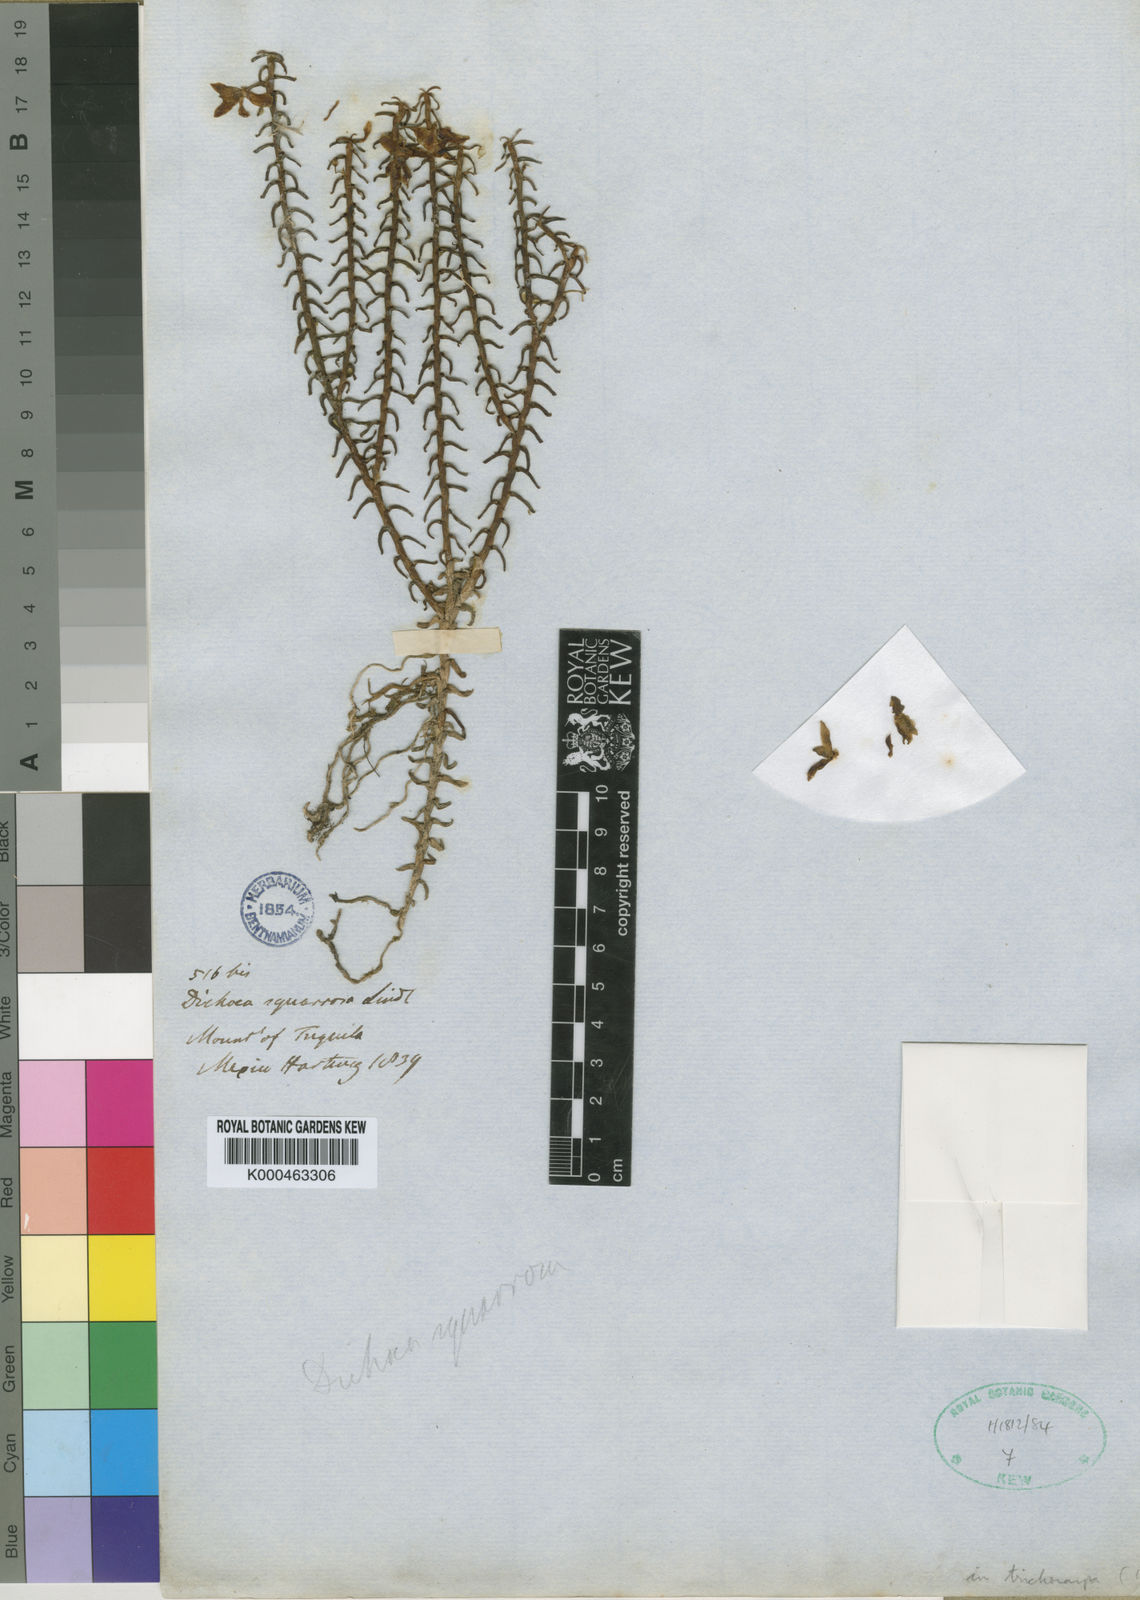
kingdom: Plantae
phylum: Tracheophyta
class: Liliopsida
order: Asparagales
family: Orchidaceae
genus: Dichaea
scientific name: Dichaea squarrosa
